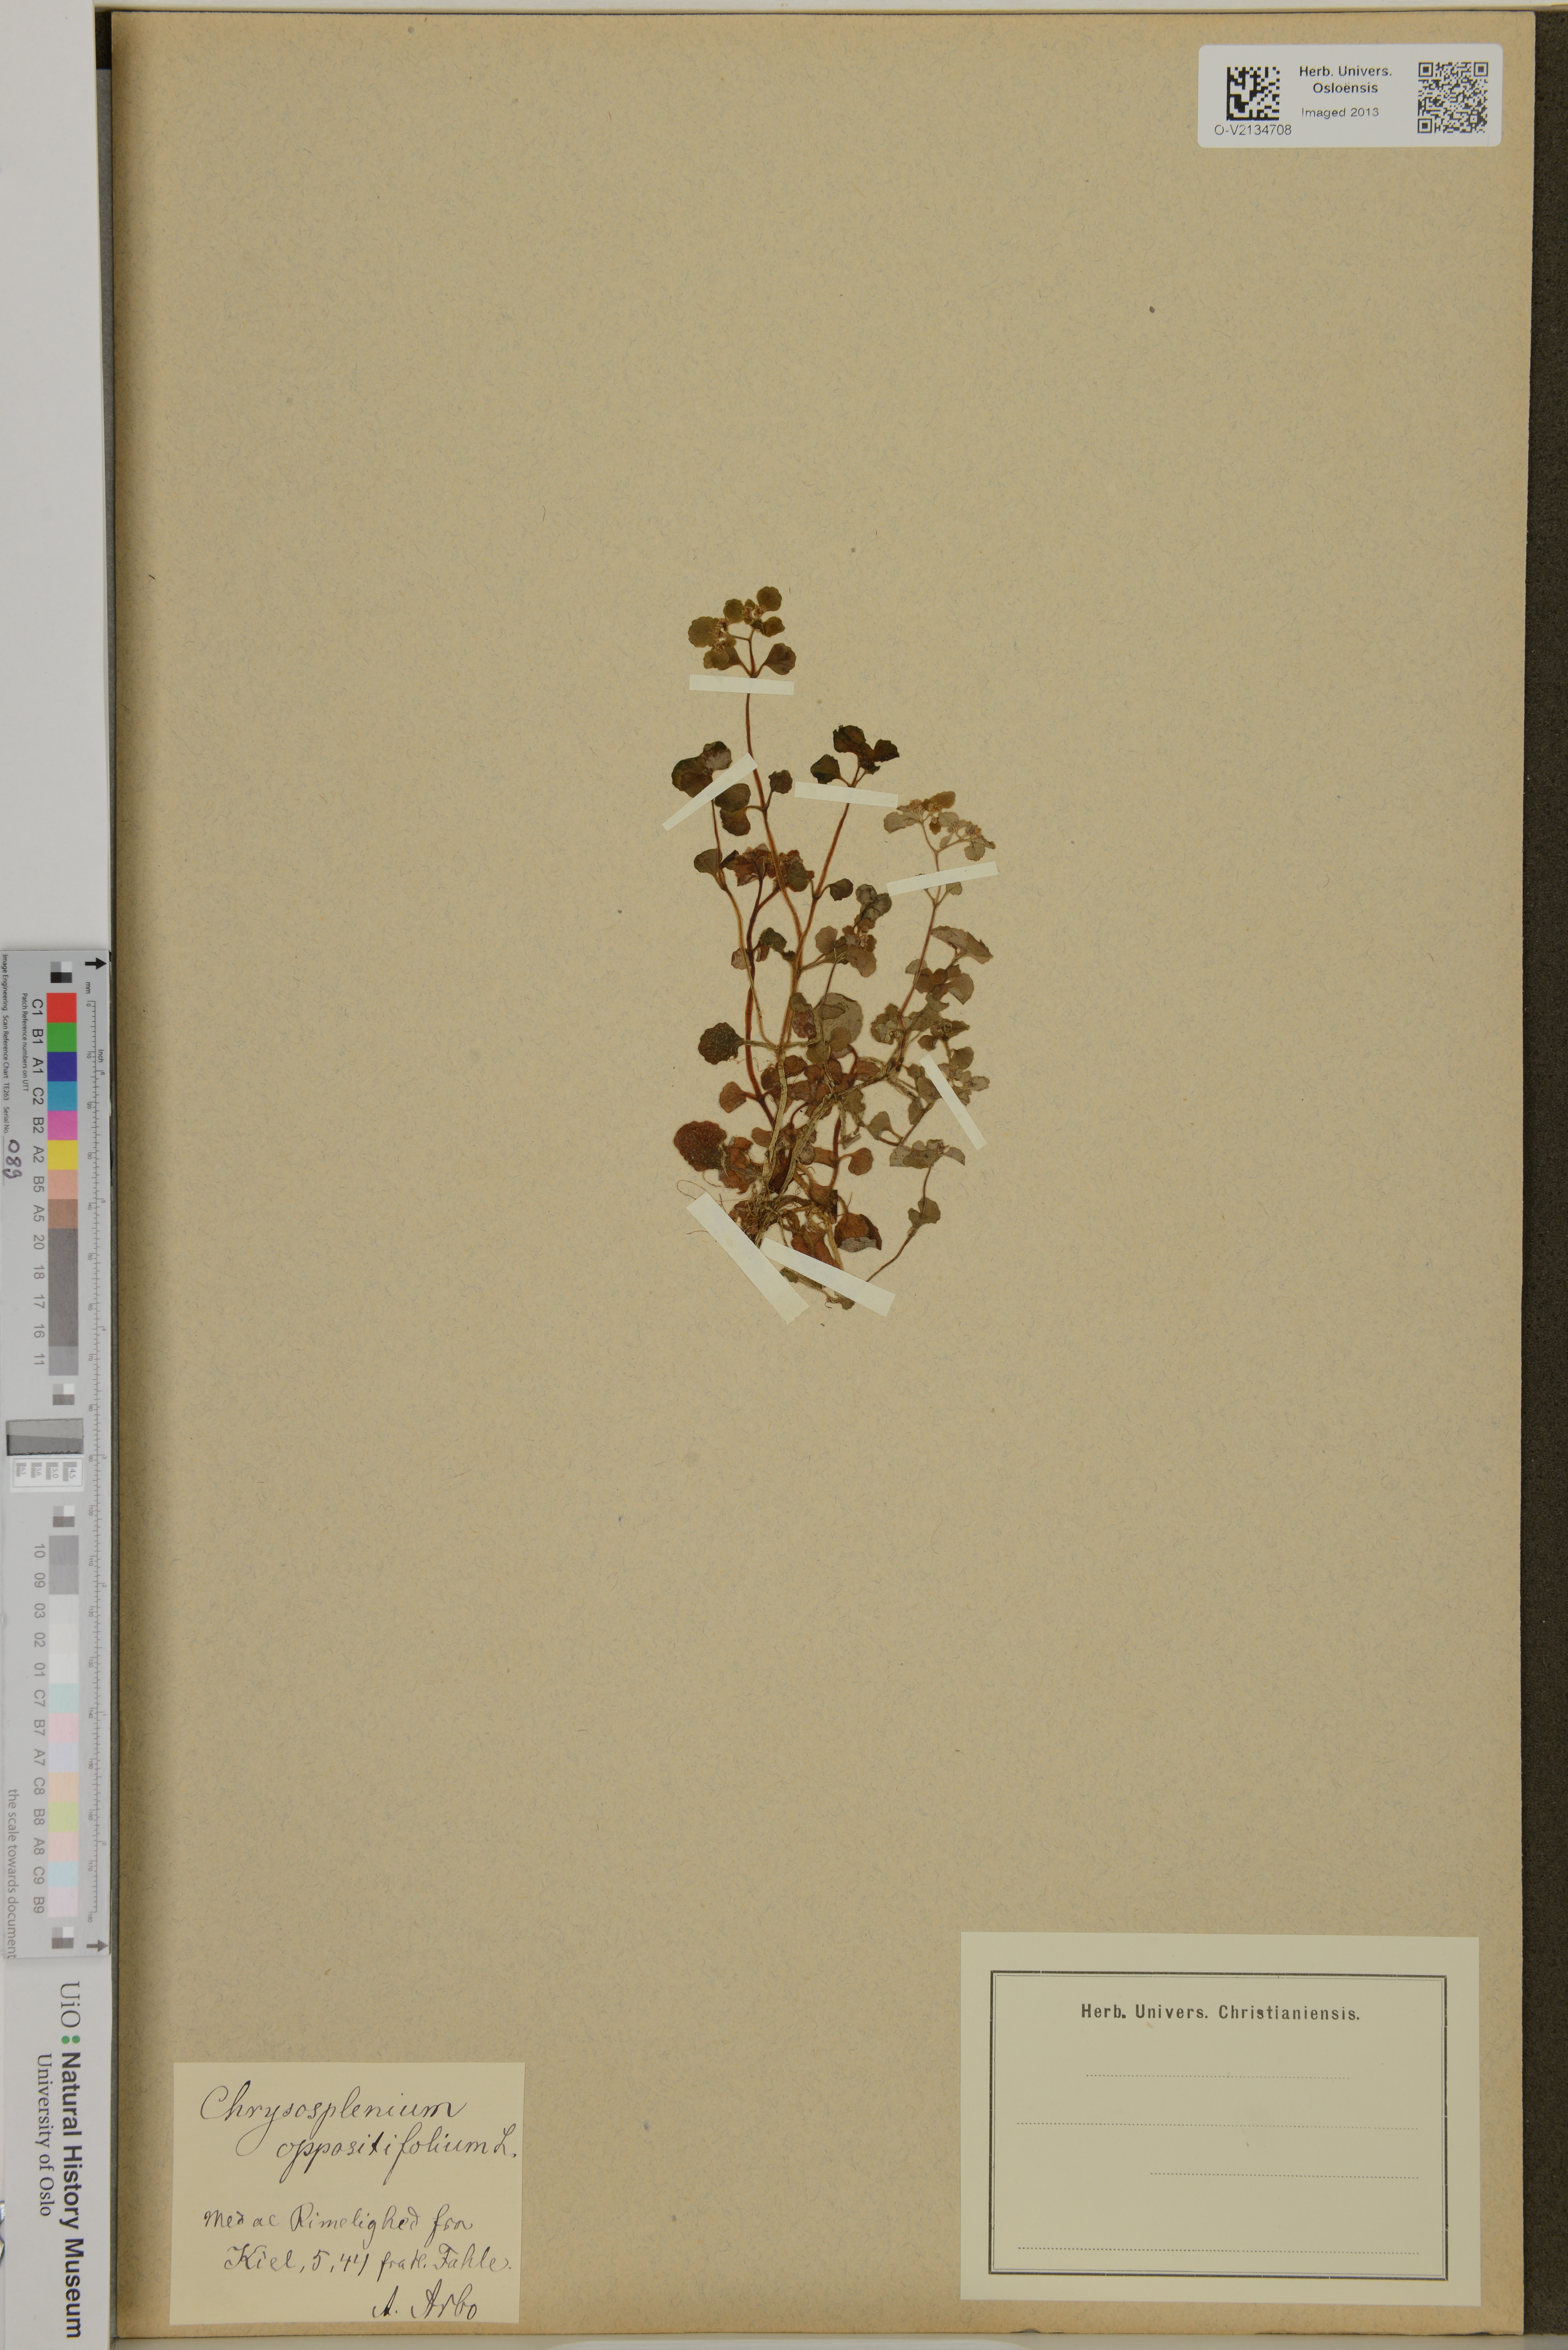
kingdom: Plantae
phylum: Tracheophyta
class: Magnoliopsida
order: Saxifragales
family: Saxifragaceae
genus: Chrysosplenium
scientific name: Chrysosplenium oppositifolium
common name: Opposite-leaved golden-saxifrage
